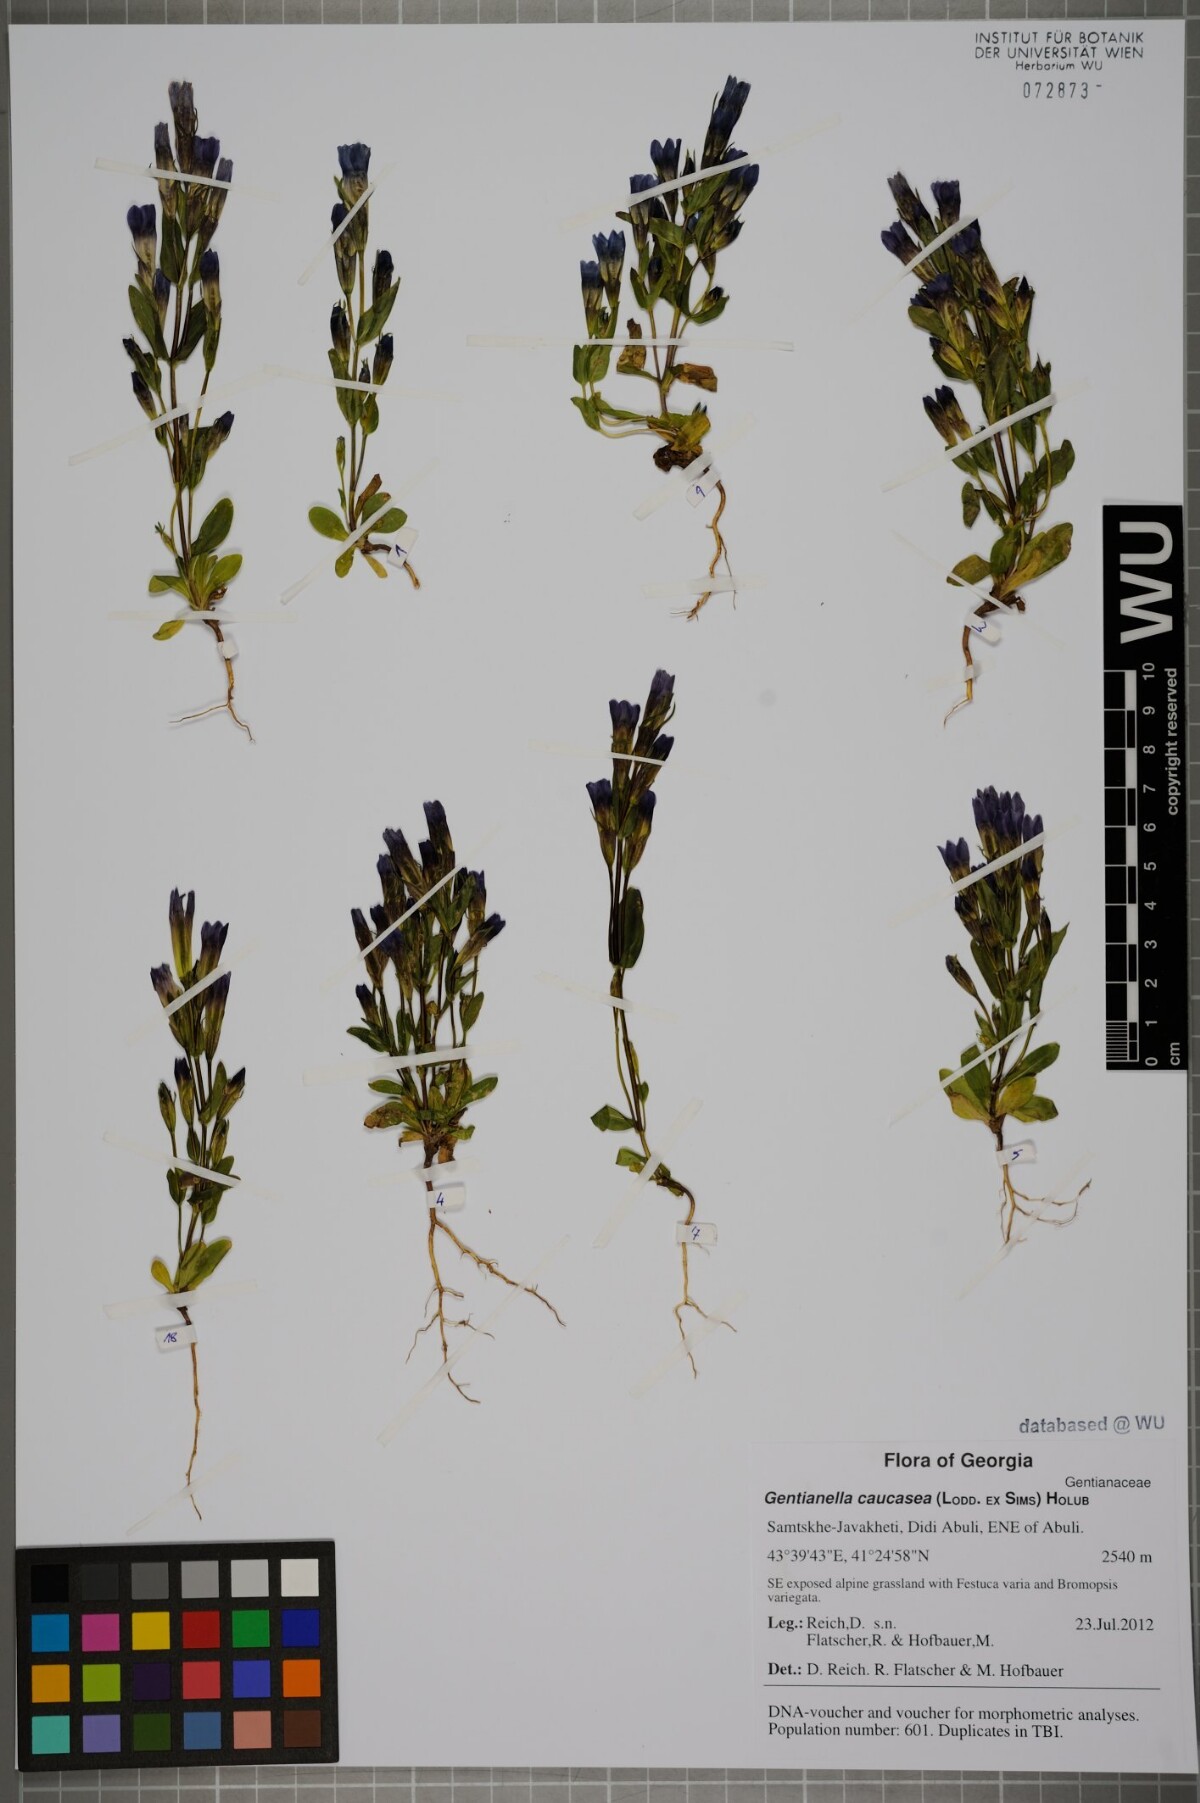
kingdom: Plantae
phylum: Tracheophyta
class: Magnoliopsida
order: Gentianales
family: Gentianaceae
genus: Gentianella
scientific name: Gentianella caucasea
